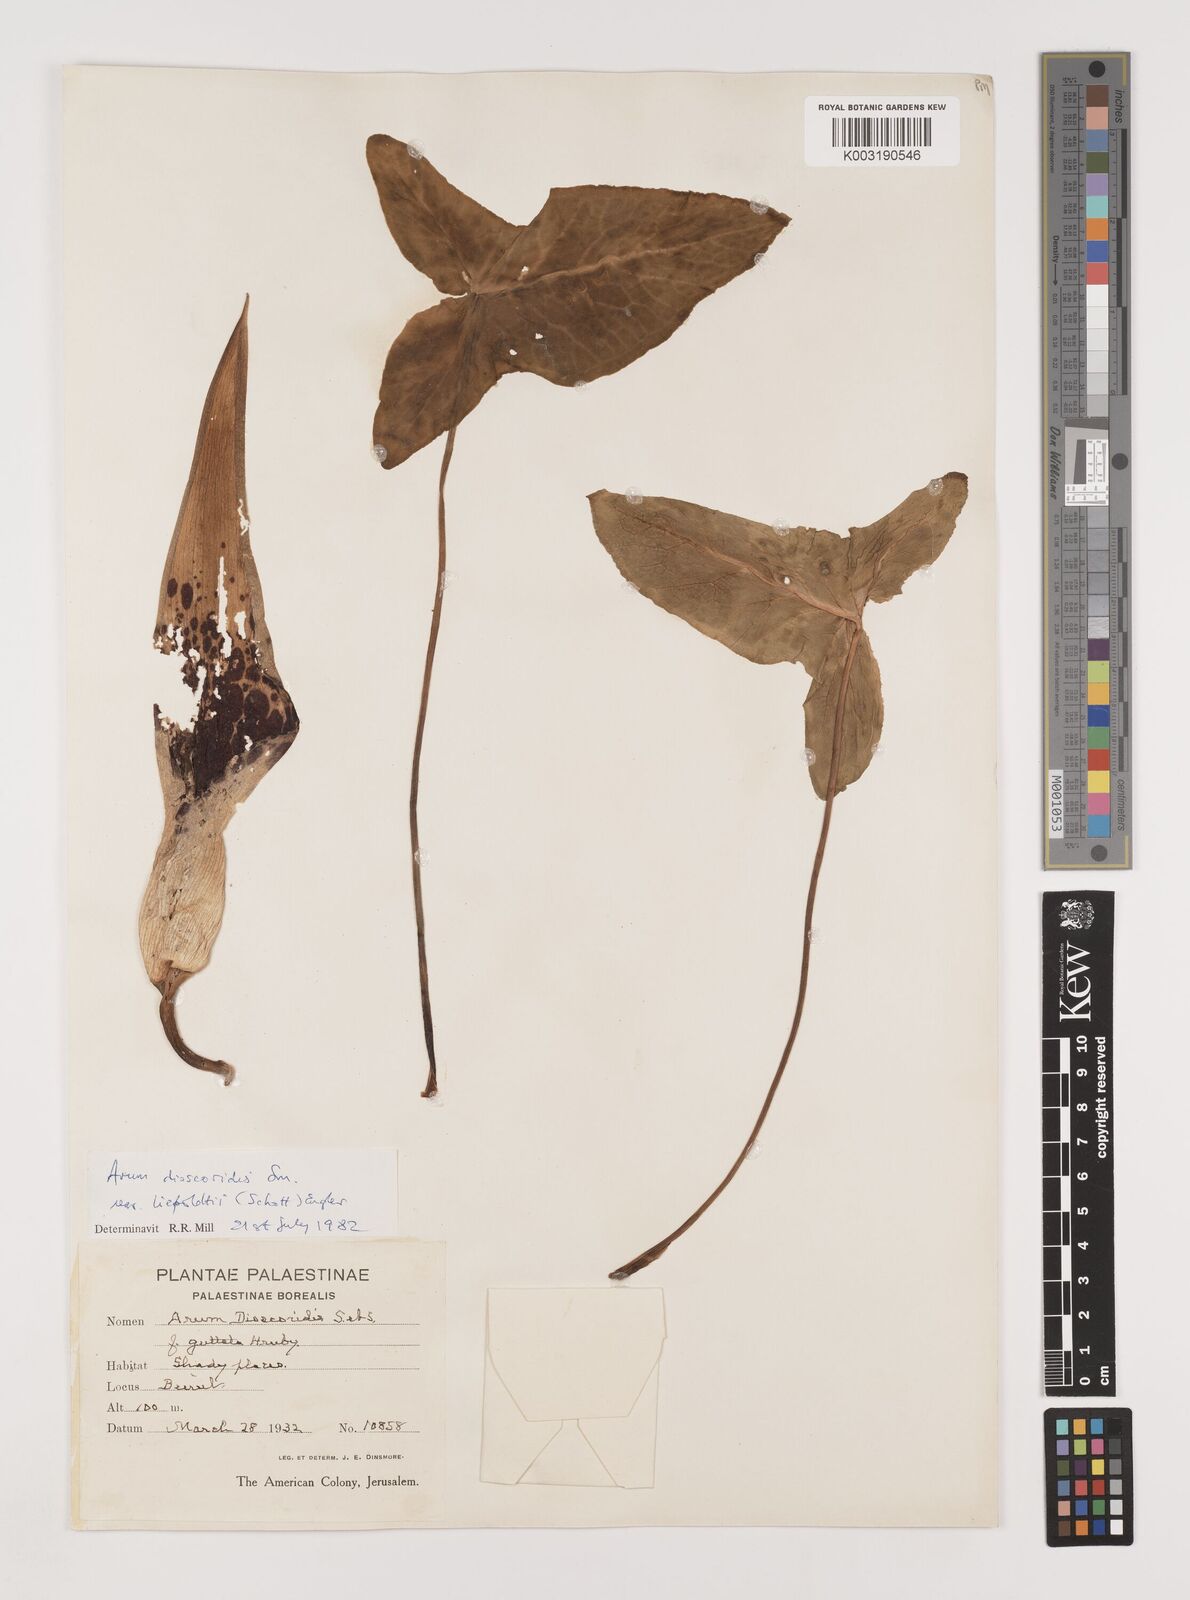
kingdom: Plantae
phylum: Tracheophyta
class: Liliopsida
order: Alismatales
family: Araceae
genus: Arum
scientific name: Arum dioscoridis
